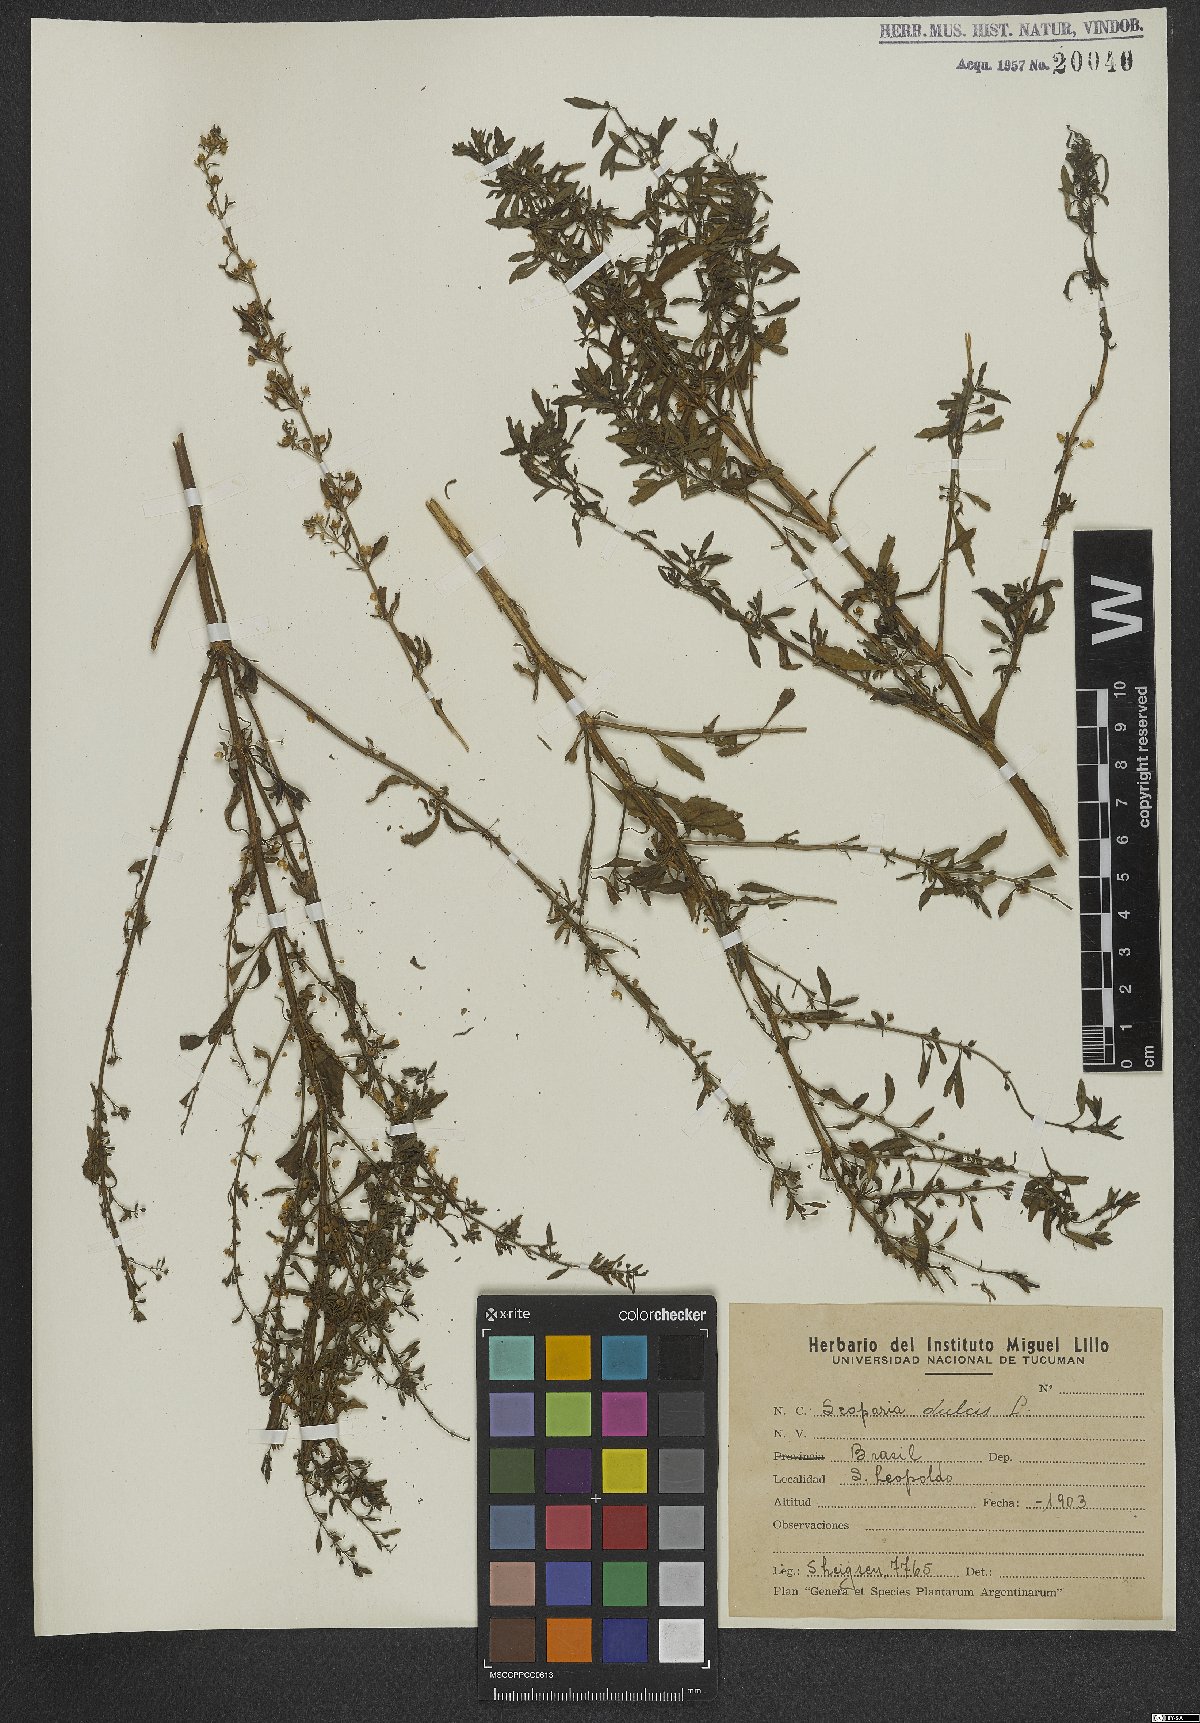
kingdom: Plantae
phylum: Tracheophyta
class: Magnoliopsida
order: Lamiales
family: Plantaginaceae
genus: Scoparia
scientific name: Scoparia dulcis
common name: Scoparia-weed
